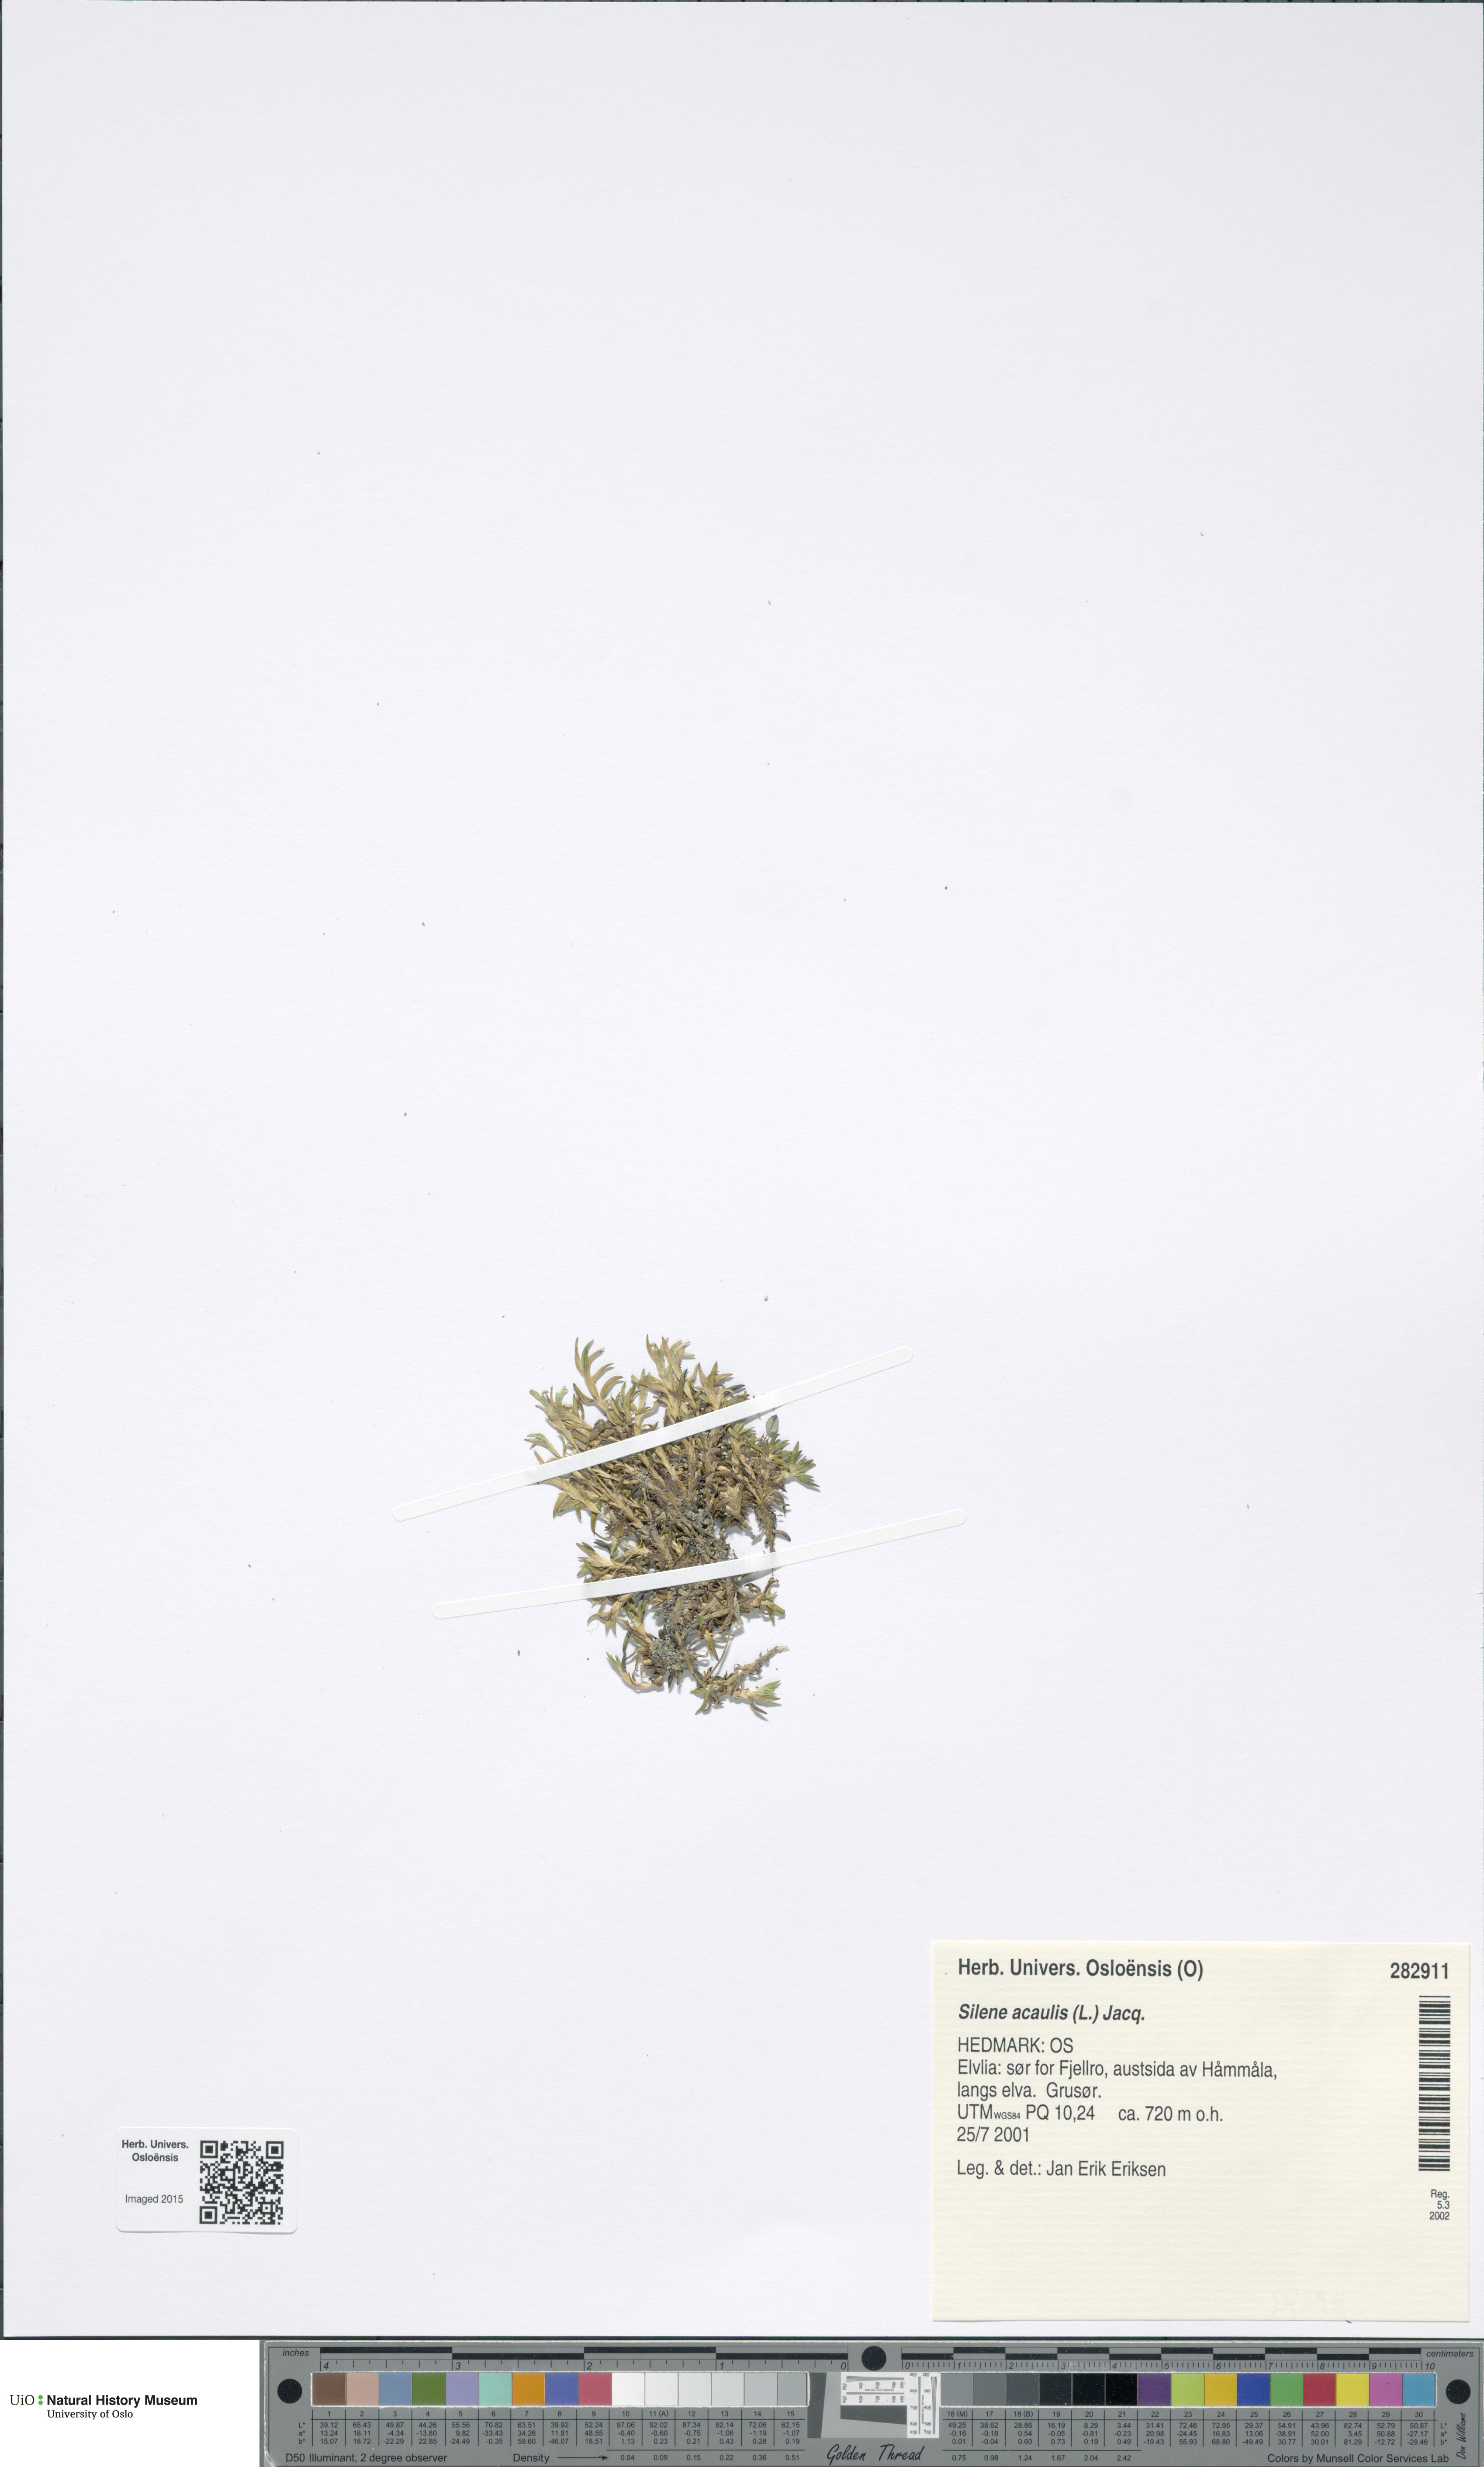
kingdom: Plantae
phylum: Tracheophyta
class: Magnoliopsida
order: Caryophyllales
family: Caryophyllaceae
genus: Silene
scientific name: Silene acaulis
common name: Moss campion
